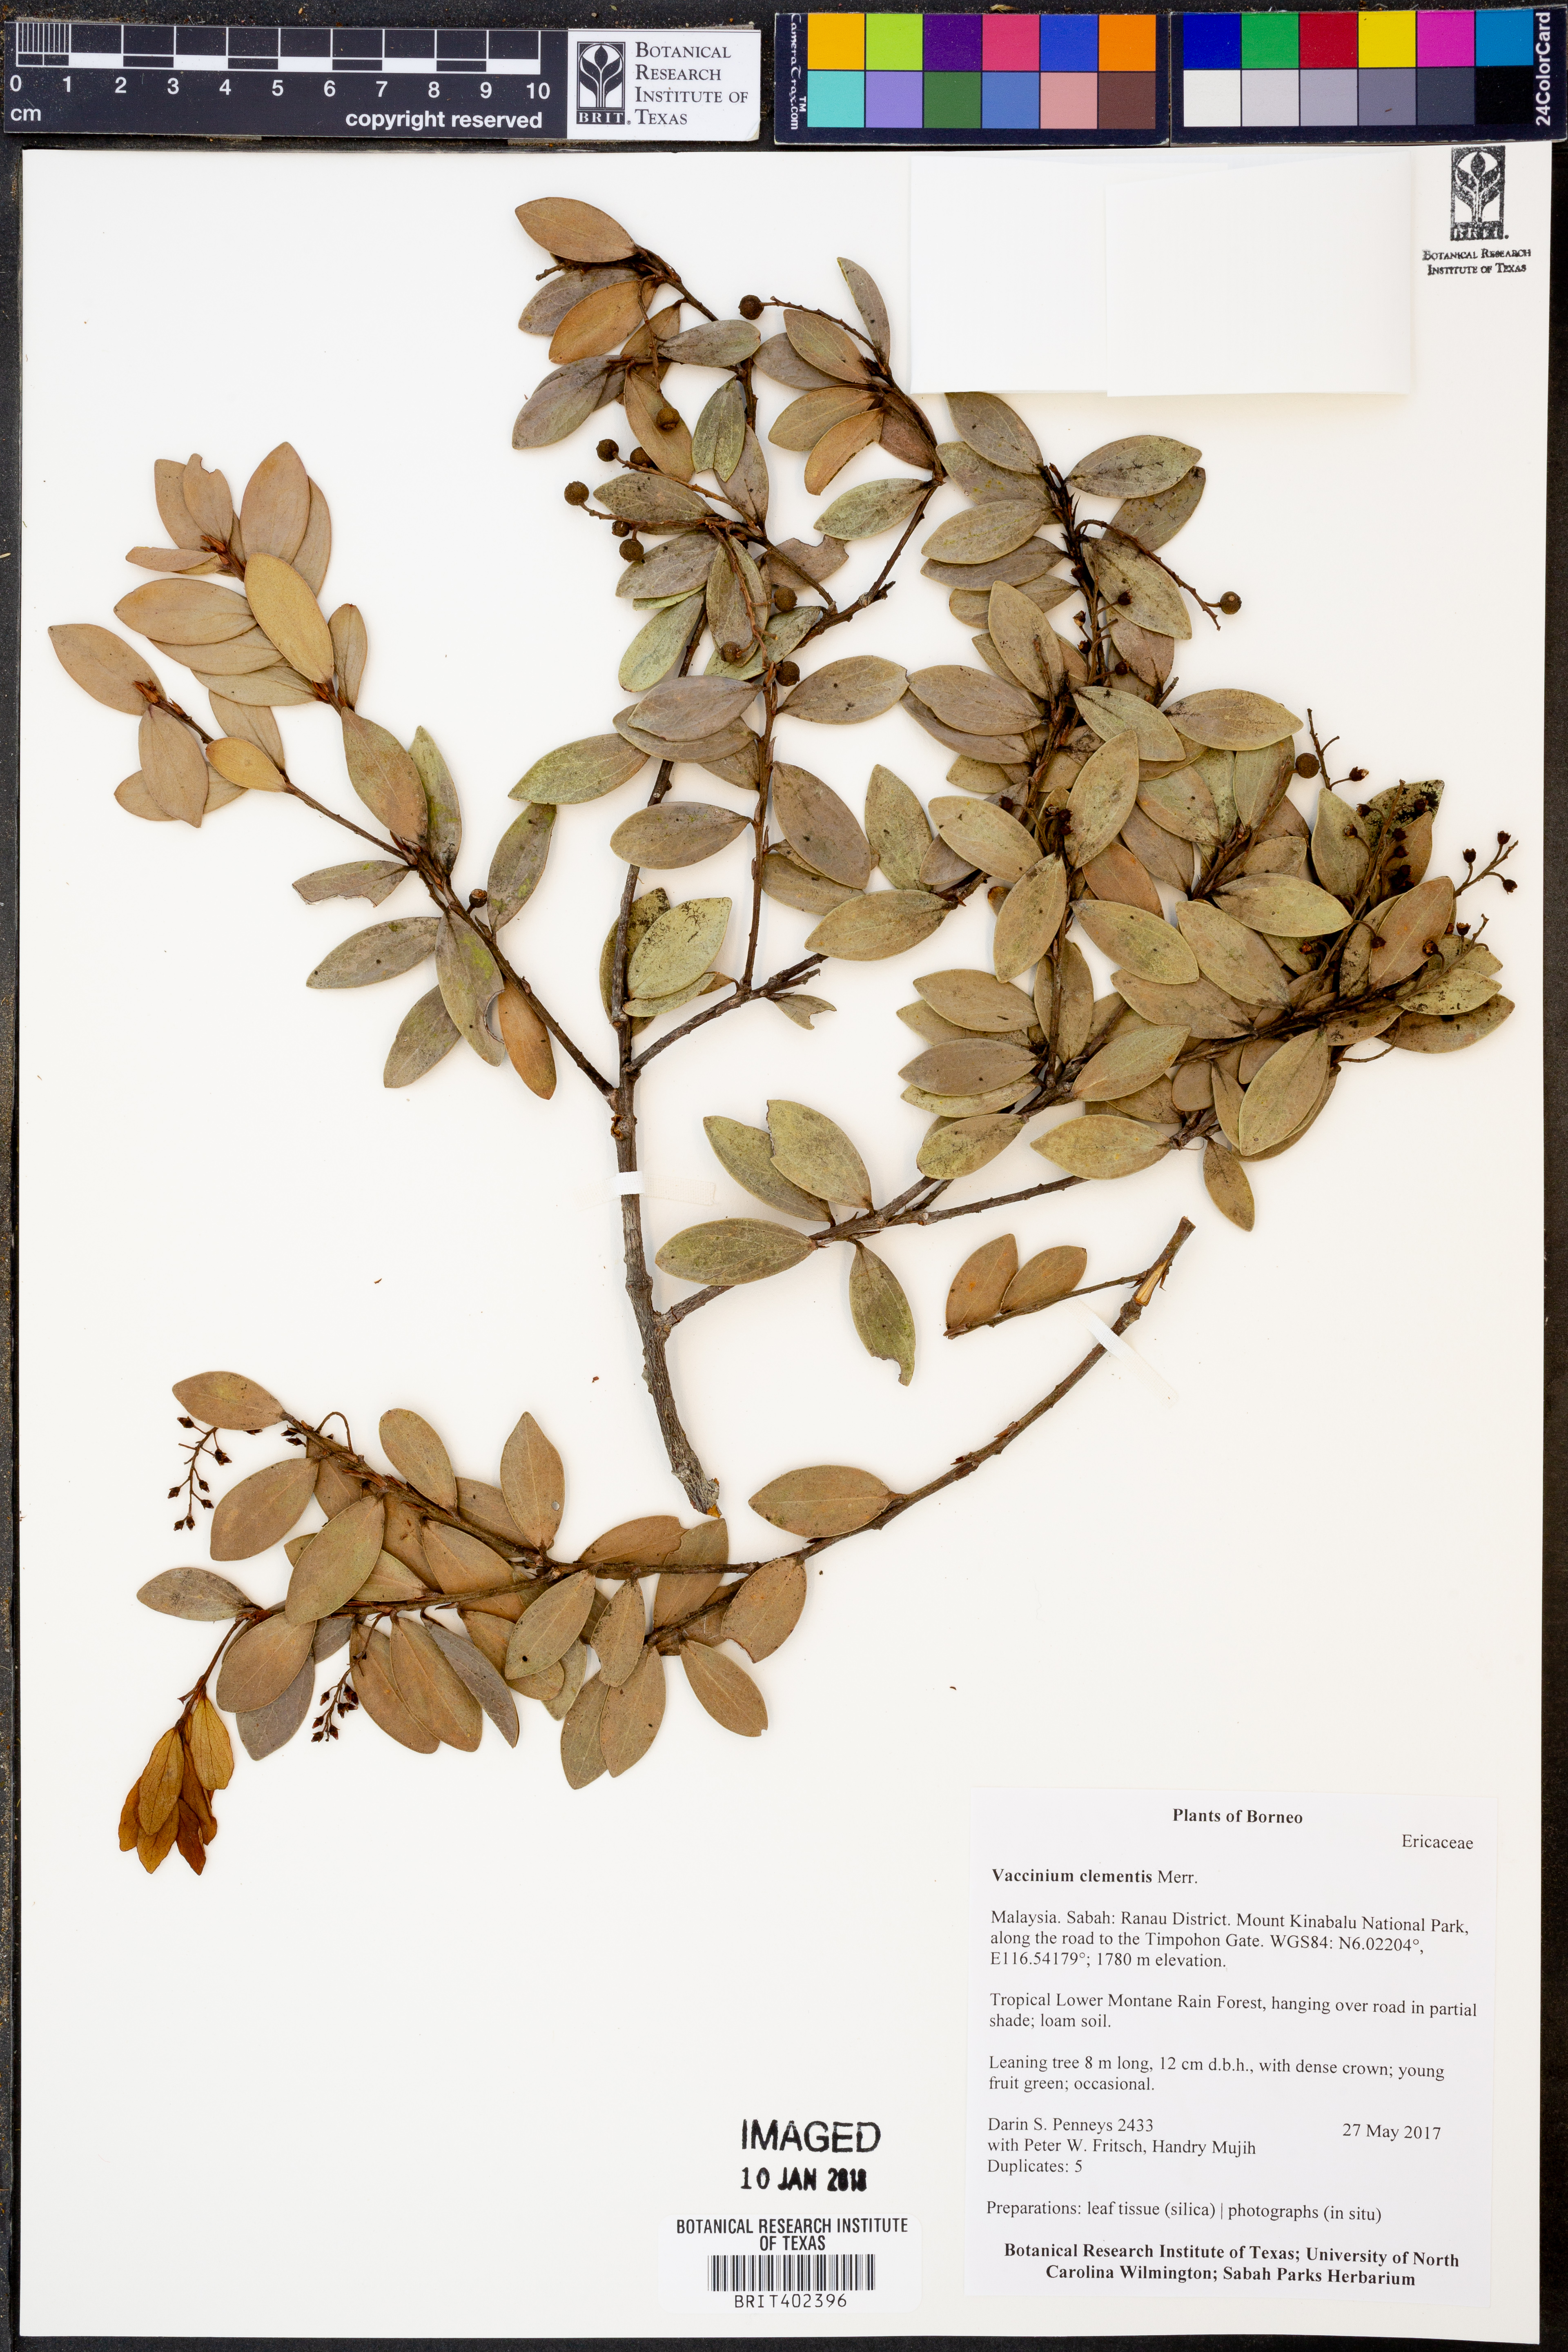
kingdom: Plantae
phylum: Tracheophyta
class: Magnoliopsida
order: Ericales
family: Ericaceae
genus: Vaccinium
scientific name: Vaccinium clementis
